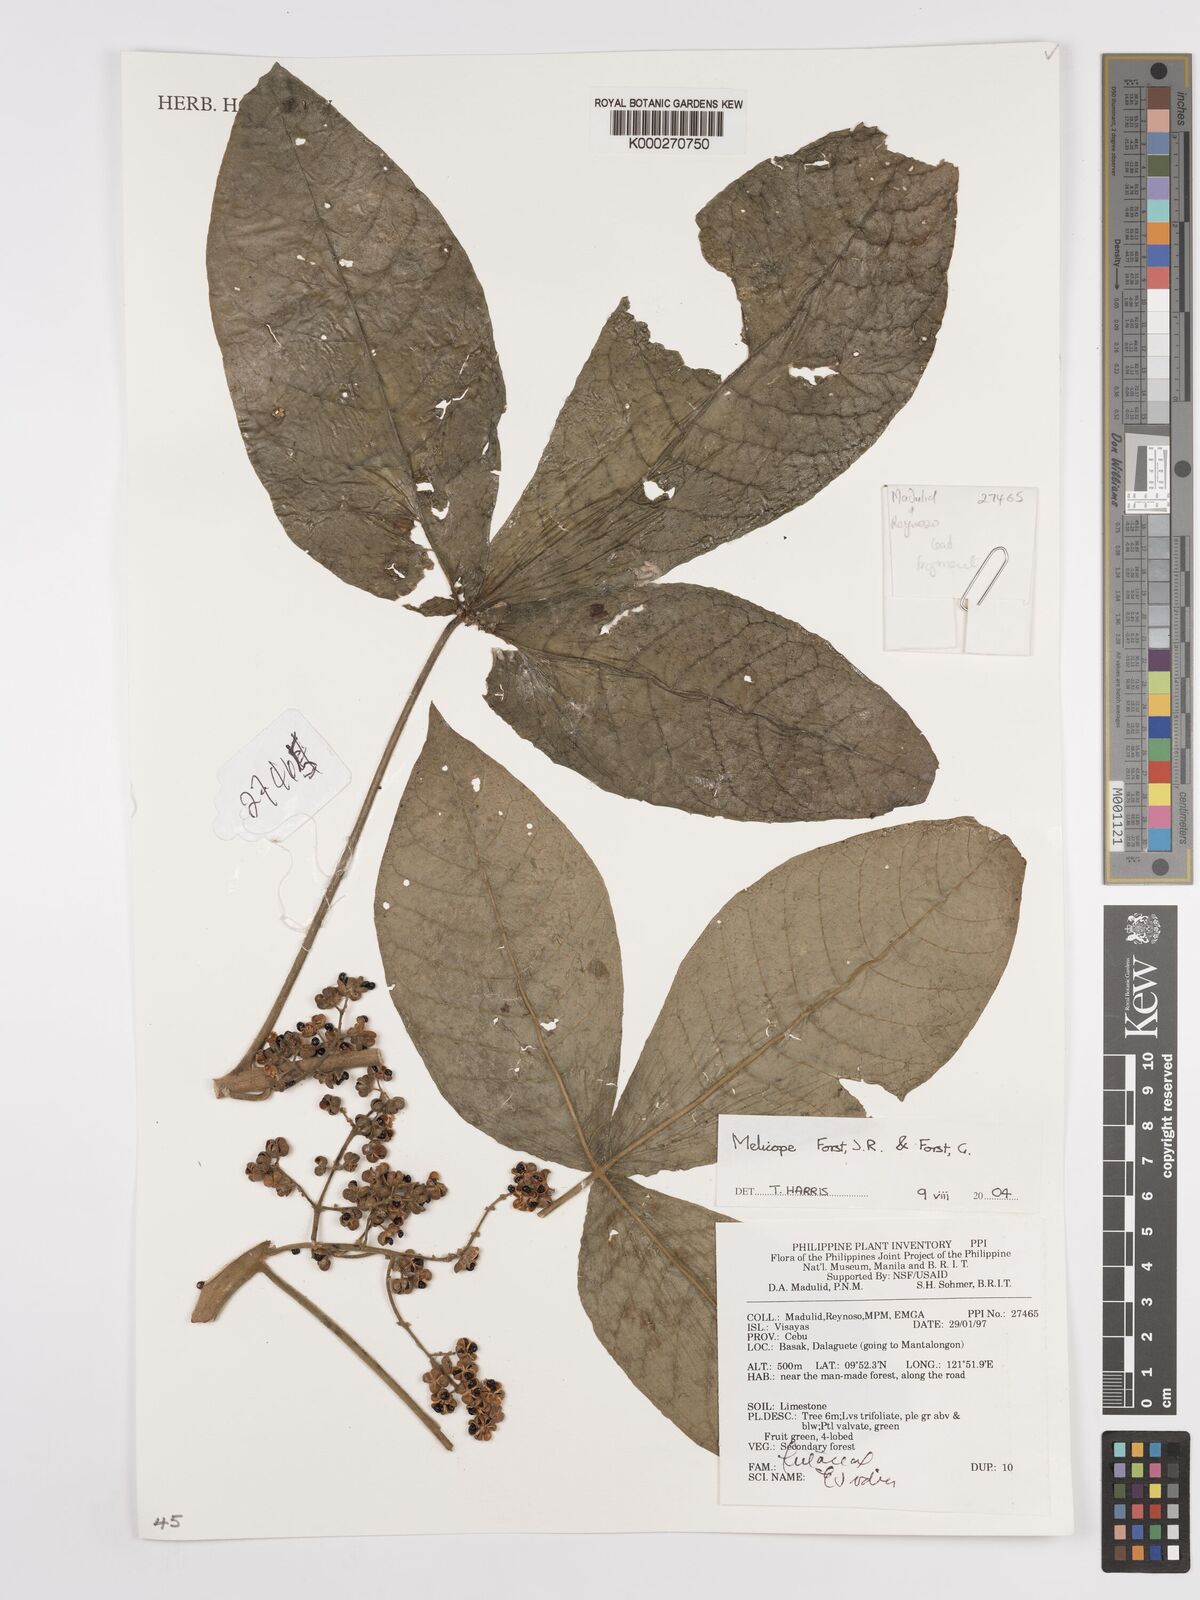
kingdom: Plantae
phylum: Tracheophyta
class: Magnoliopsida
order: Sapindales
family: Rutaceae
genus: Melicope
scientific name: Melicope
